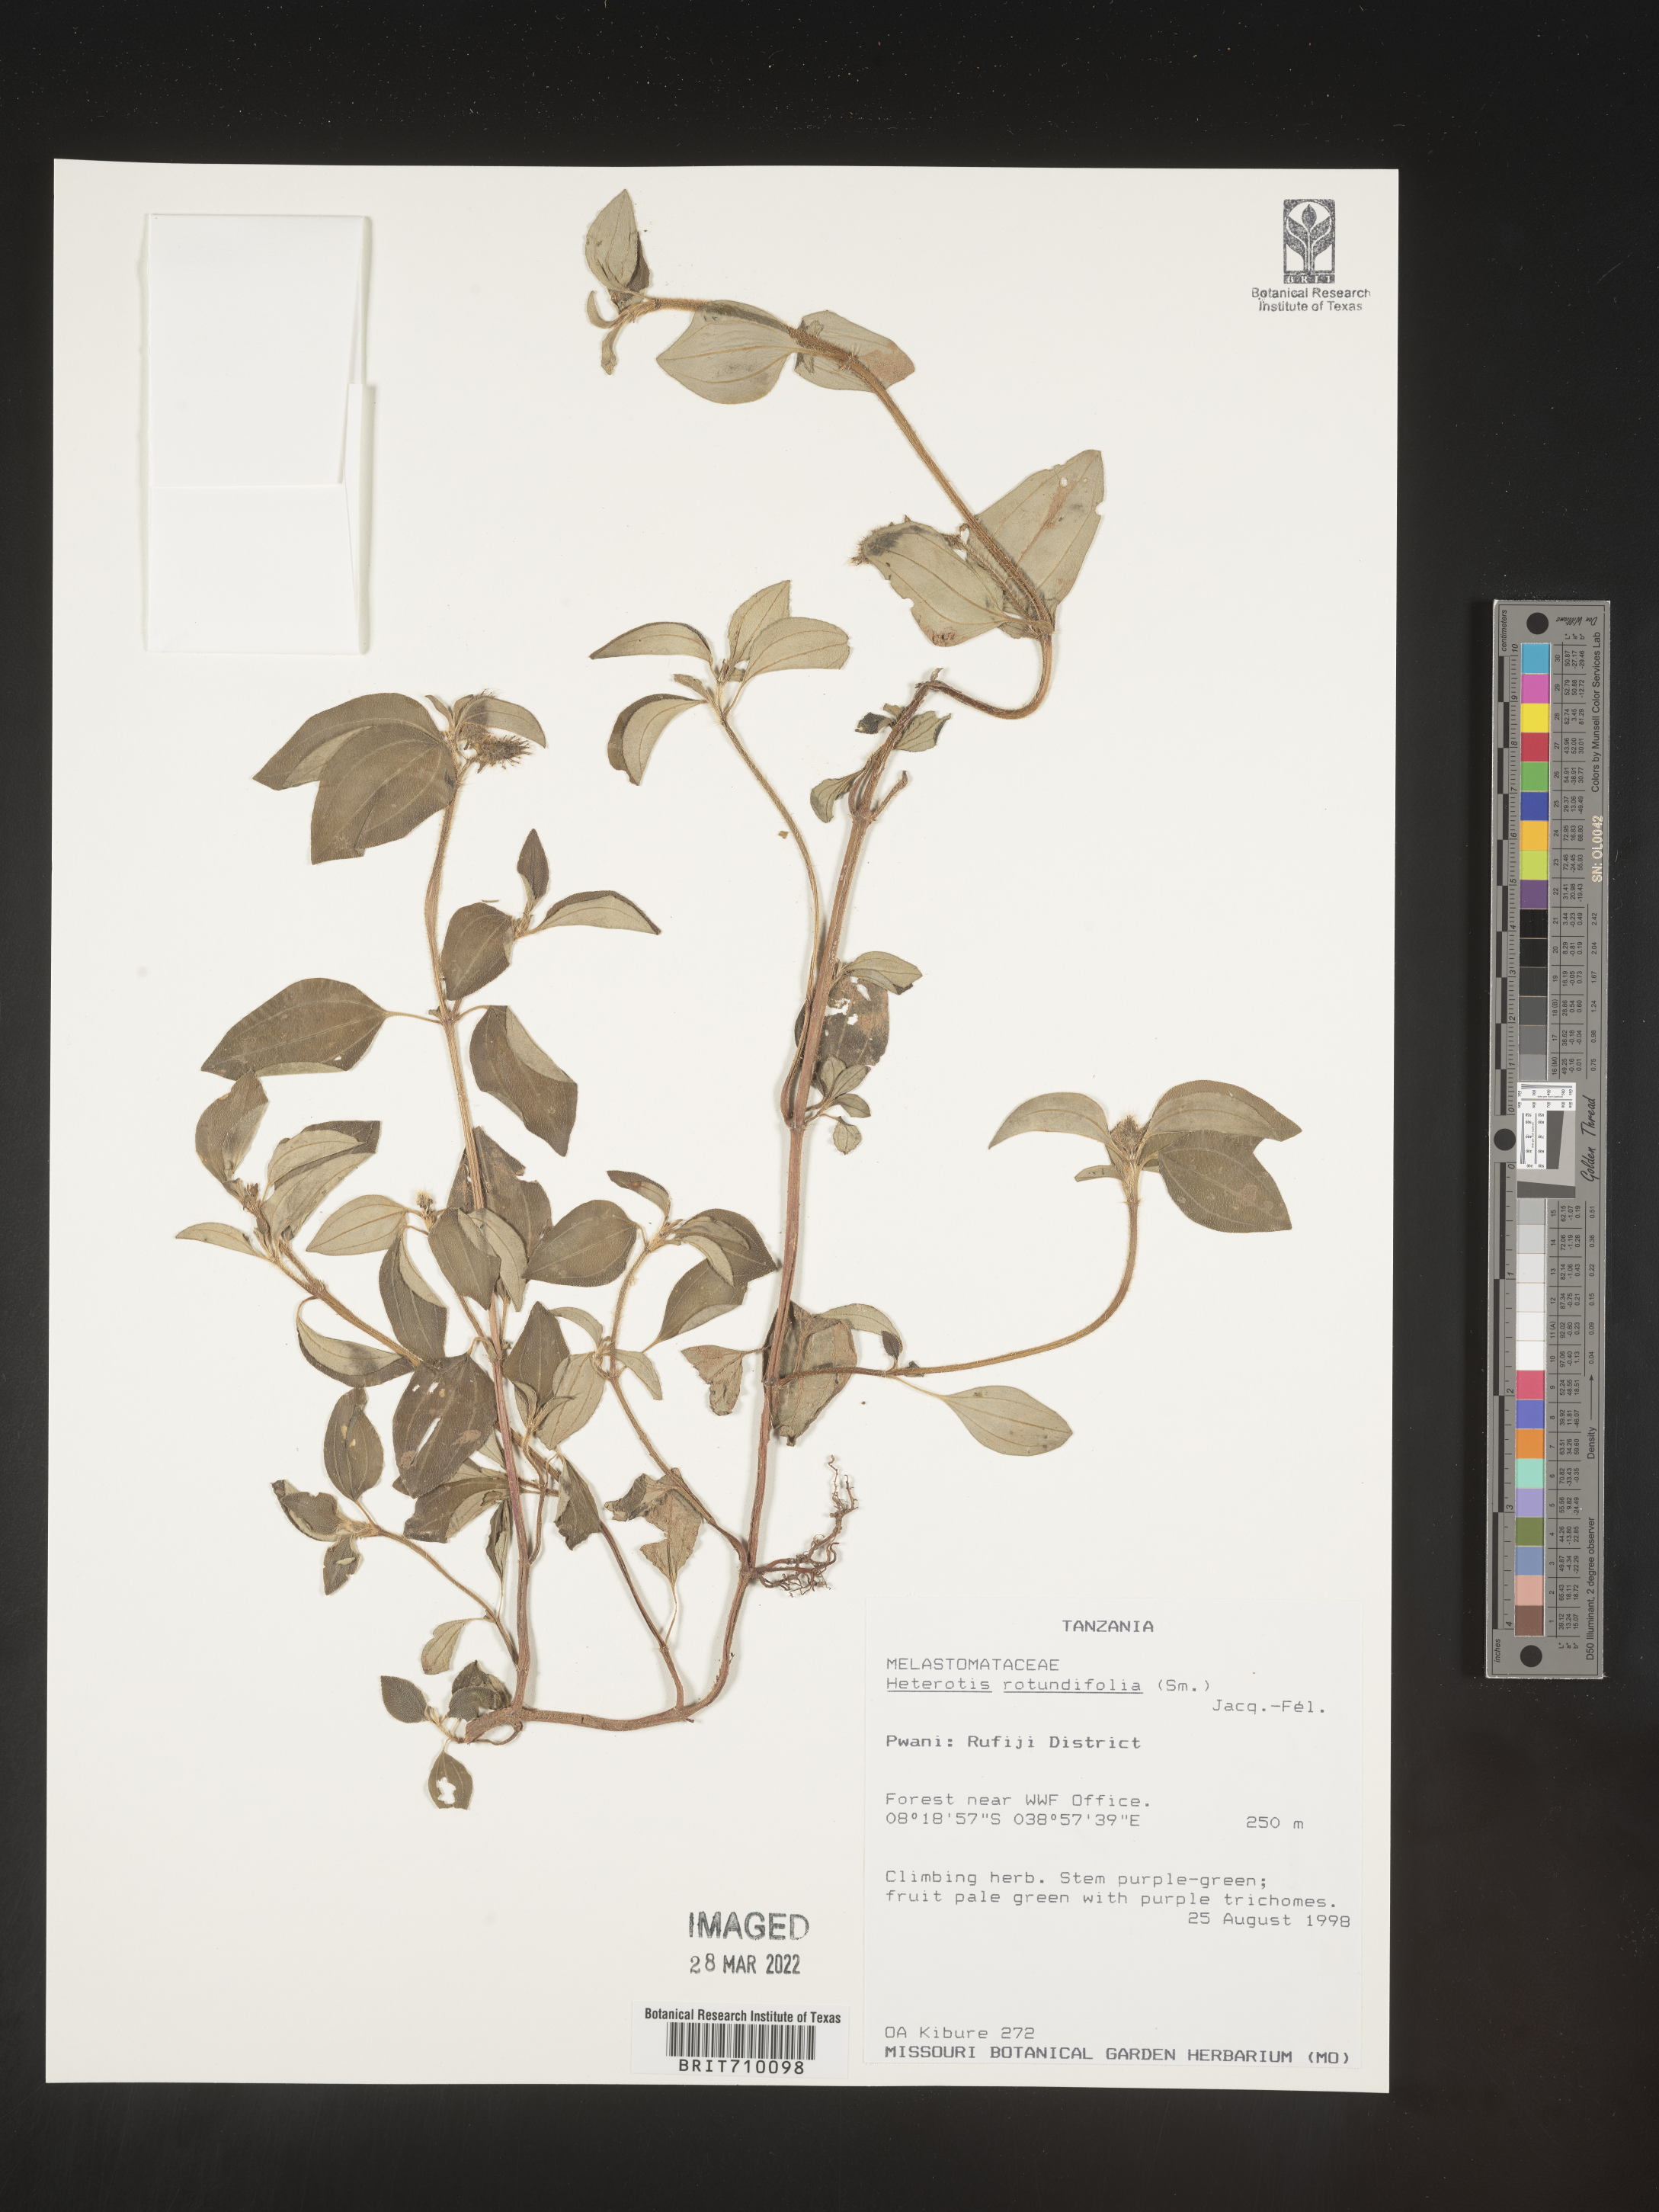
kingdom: Plantae
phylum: Tracheophyta
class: Magnoliopsida
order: Myrtales
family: Melastomataceae
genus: Heterotis
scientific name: Heterotis
